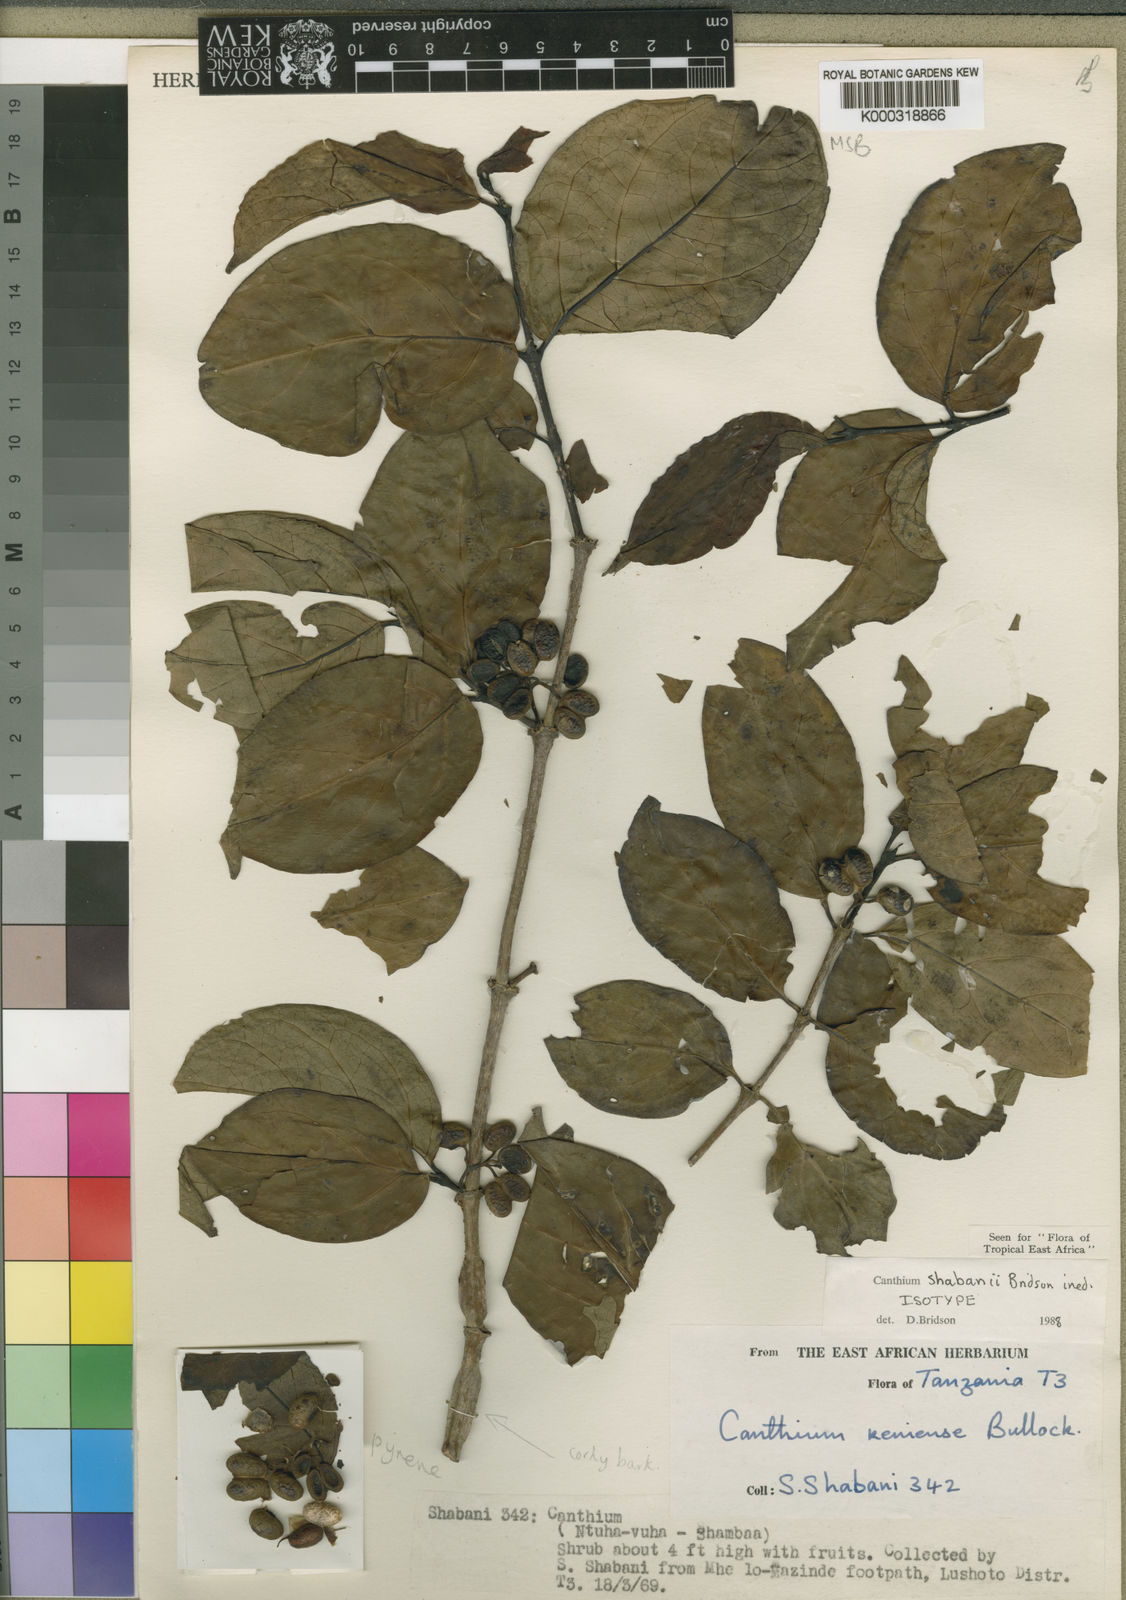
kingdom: Plantae
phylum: Tracheophyta
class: Magnoliopsida
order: Gentianales
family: Rubiaceae
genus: Afrocanthium
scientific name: Afrocanthium shabanii
